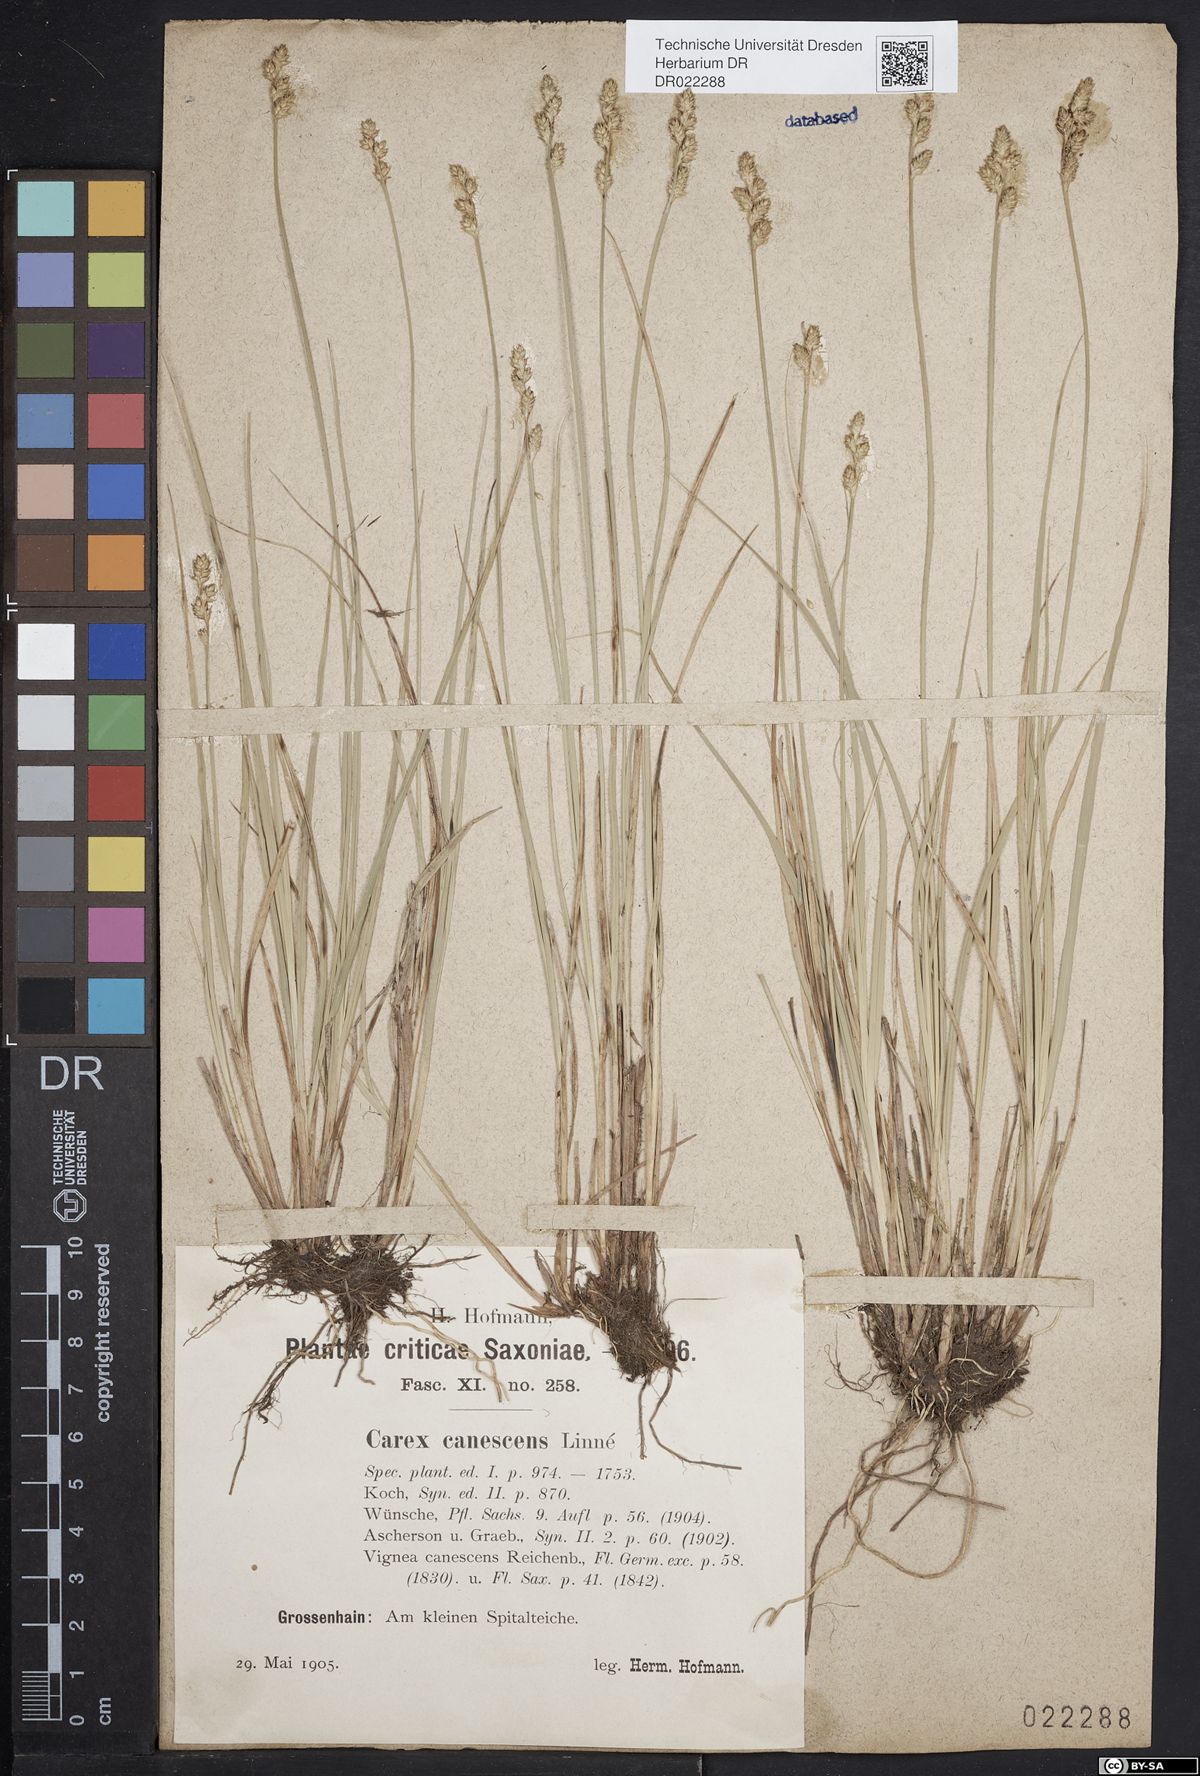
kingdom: Plantae
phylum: Tracheophyta
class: Liliopsida
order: Poales
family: Cyperaceae
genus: Carex
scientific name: Carex canescens
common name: White sedge
